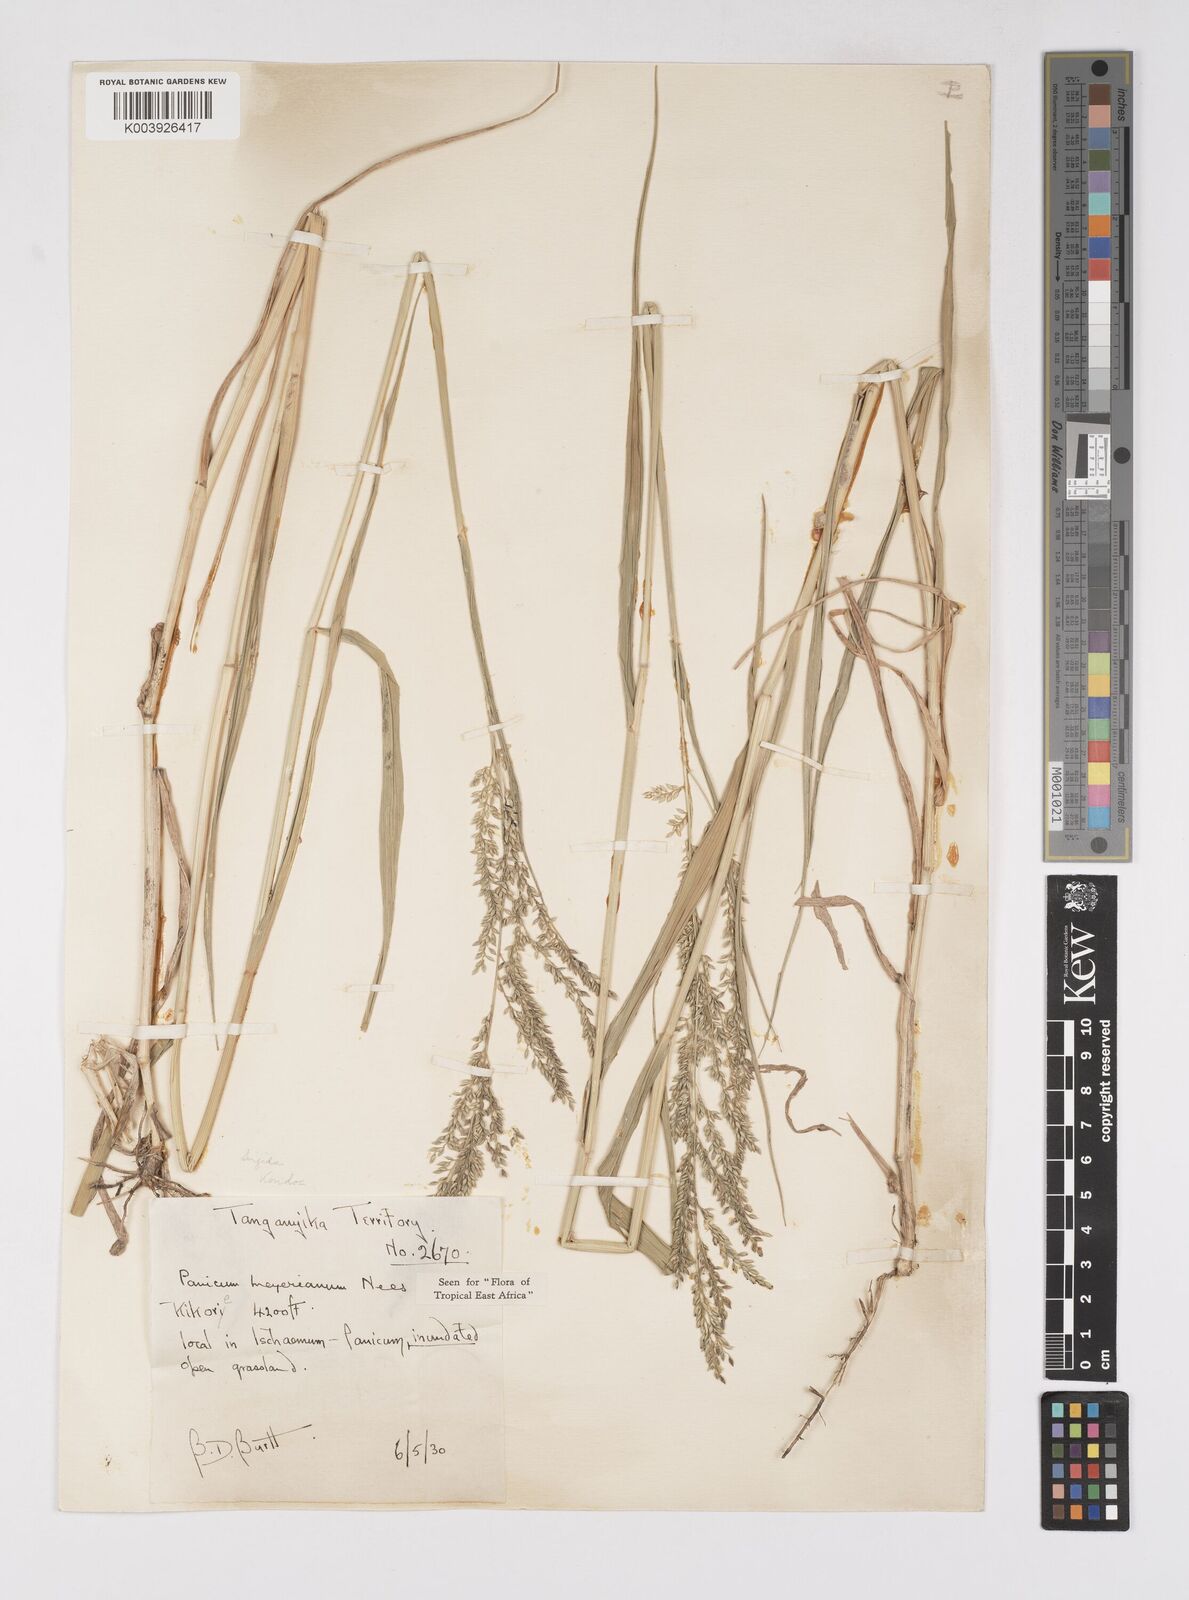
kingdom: Plantae
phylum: Tracheophyta
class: Liliopsida
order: Poales
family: Poaceae
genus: Eriochloa
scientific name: Eriochloa meyeriana
